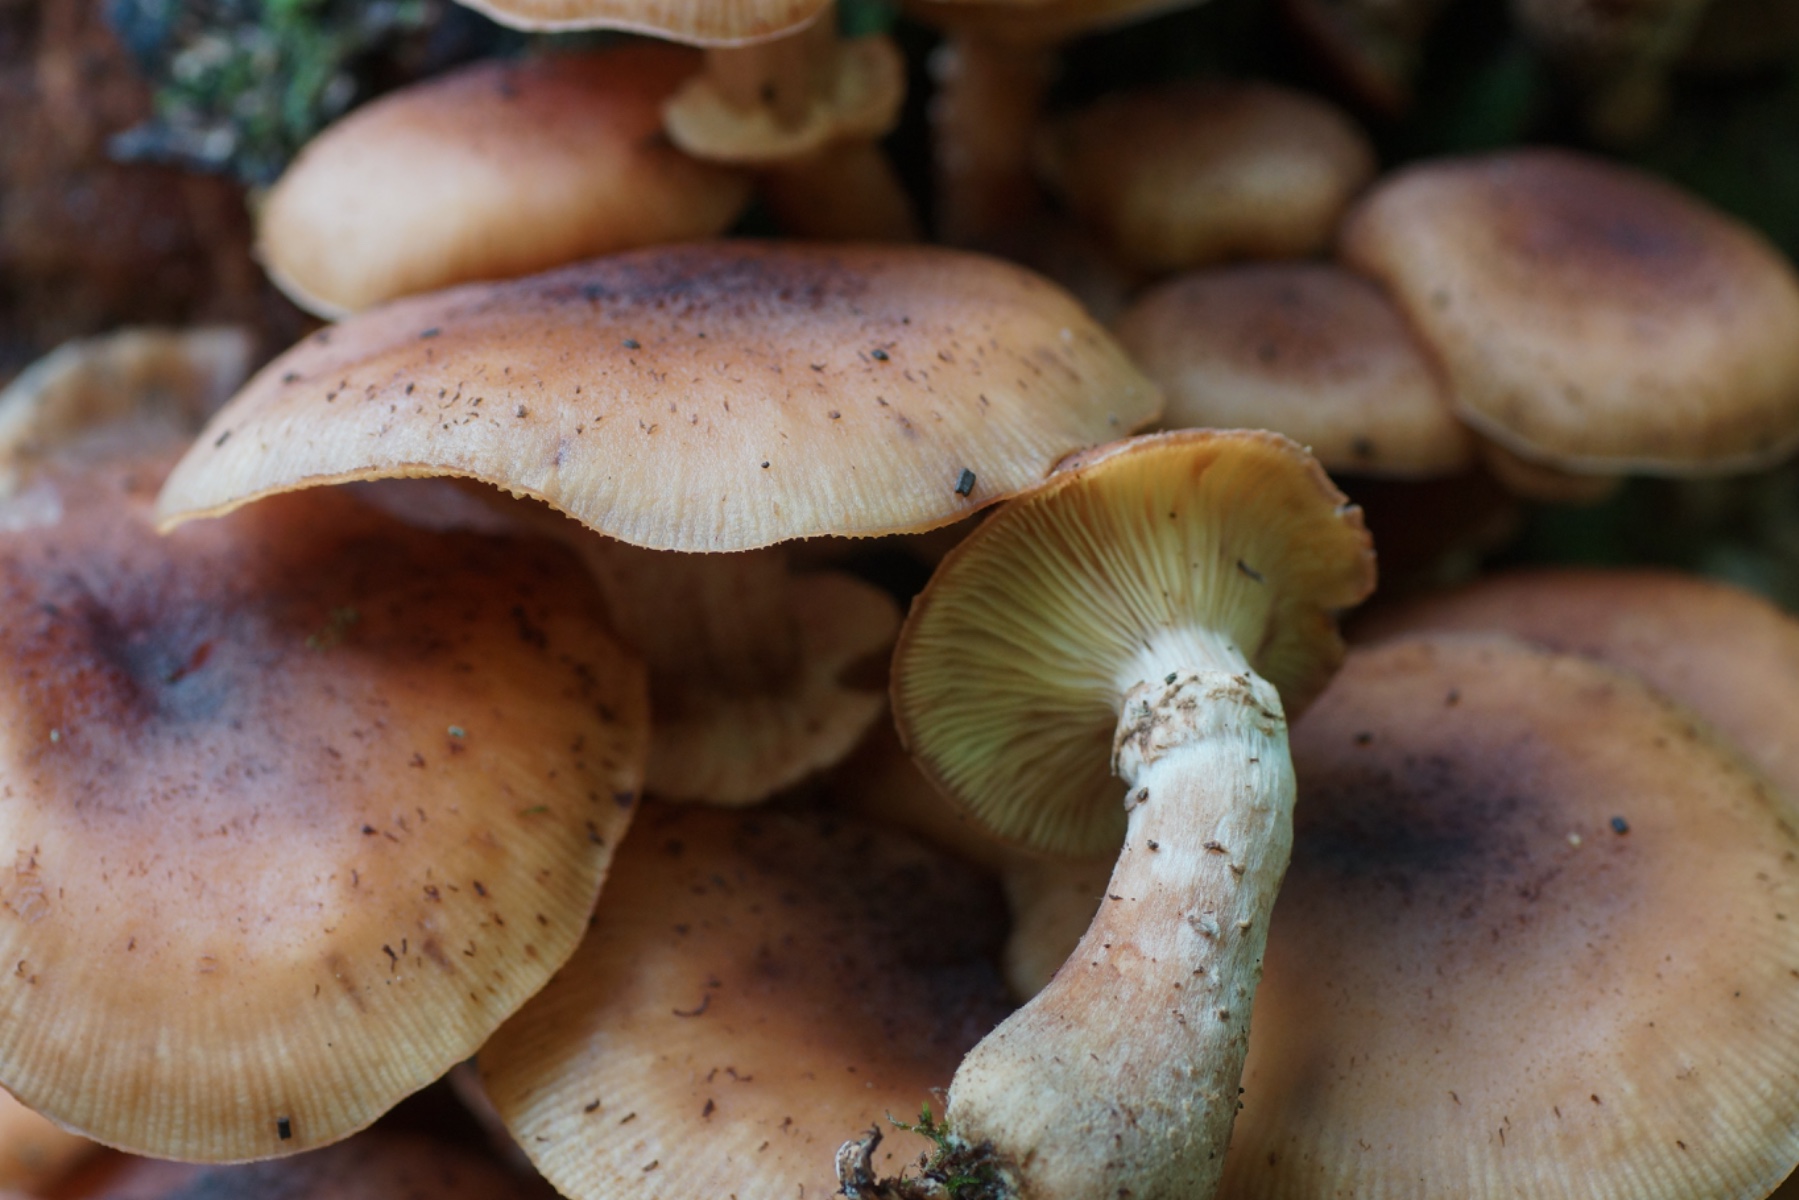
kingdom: Fungi
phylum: Basidiomycota
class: Agaricomycetes
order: Agaricales
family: Physalacriaceae
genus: Armillaria
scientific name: Armillaria
